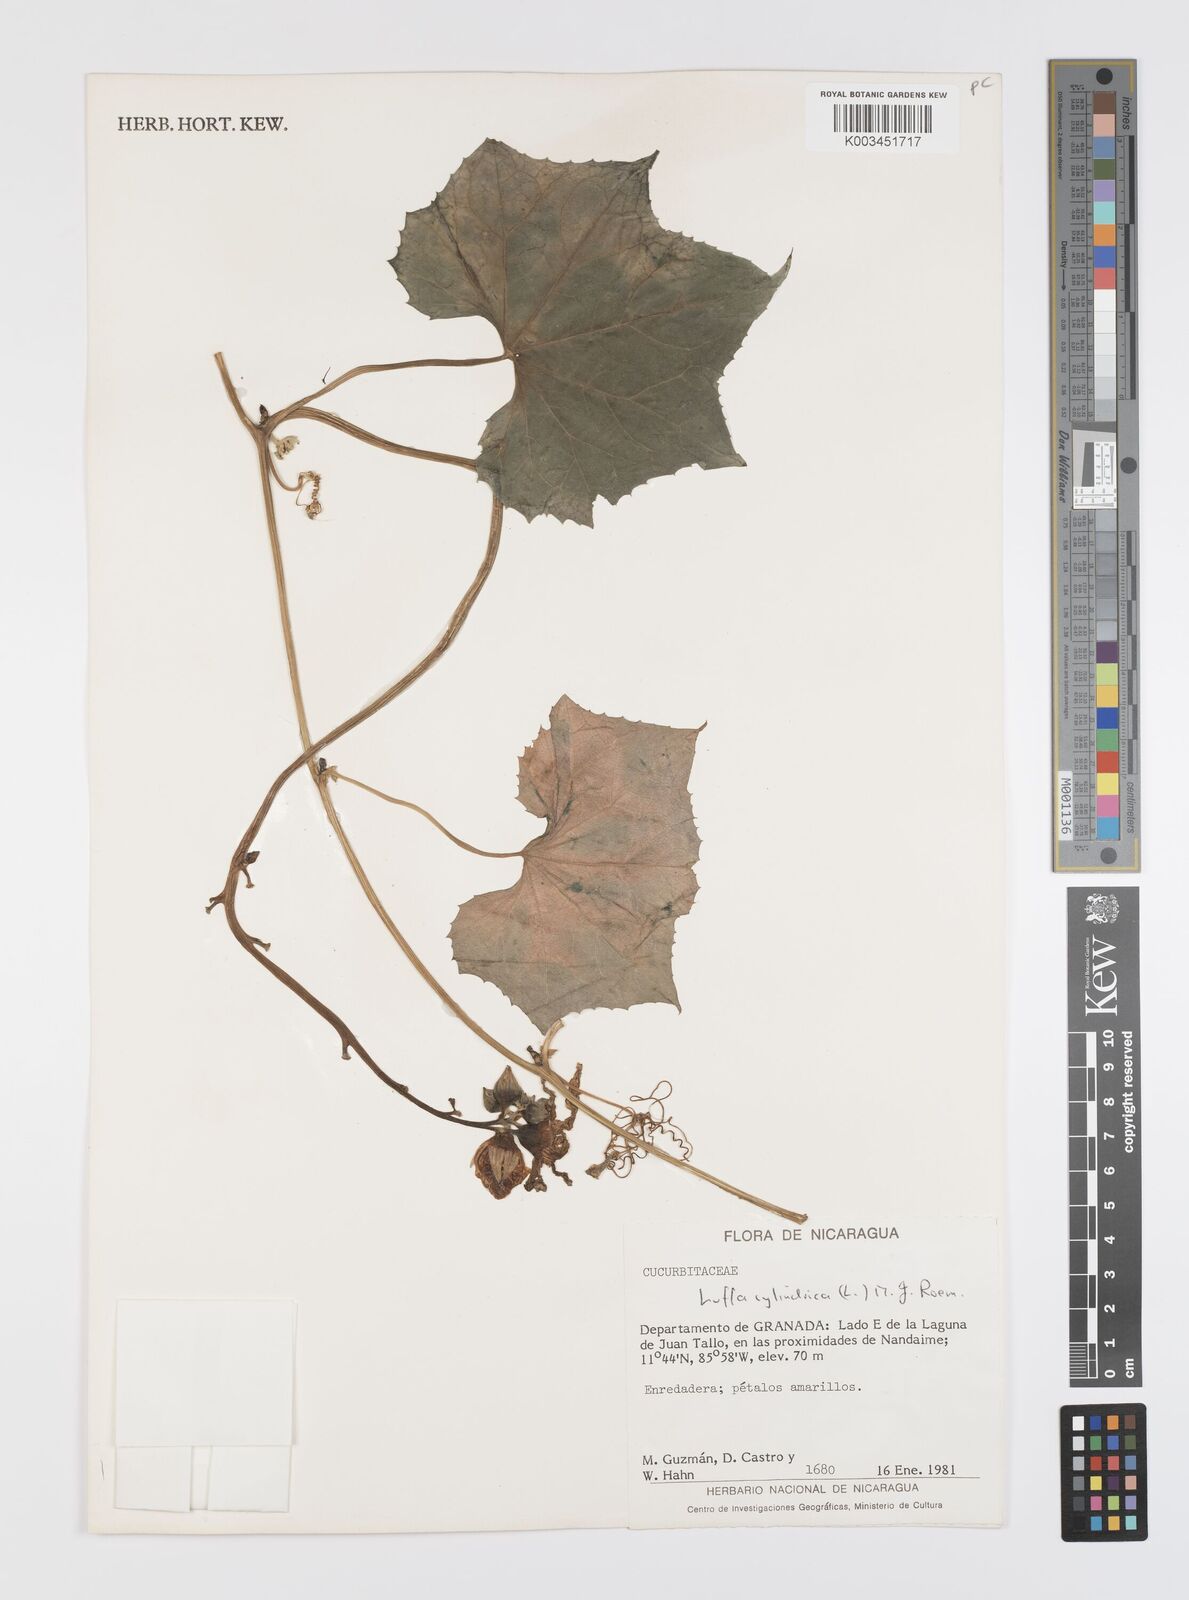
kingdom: Plantae
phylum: Tracheophyta
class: Magnoliopsida
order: Cucurbitales
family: Cucurbitaceae
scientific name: Cucurbitaceae
